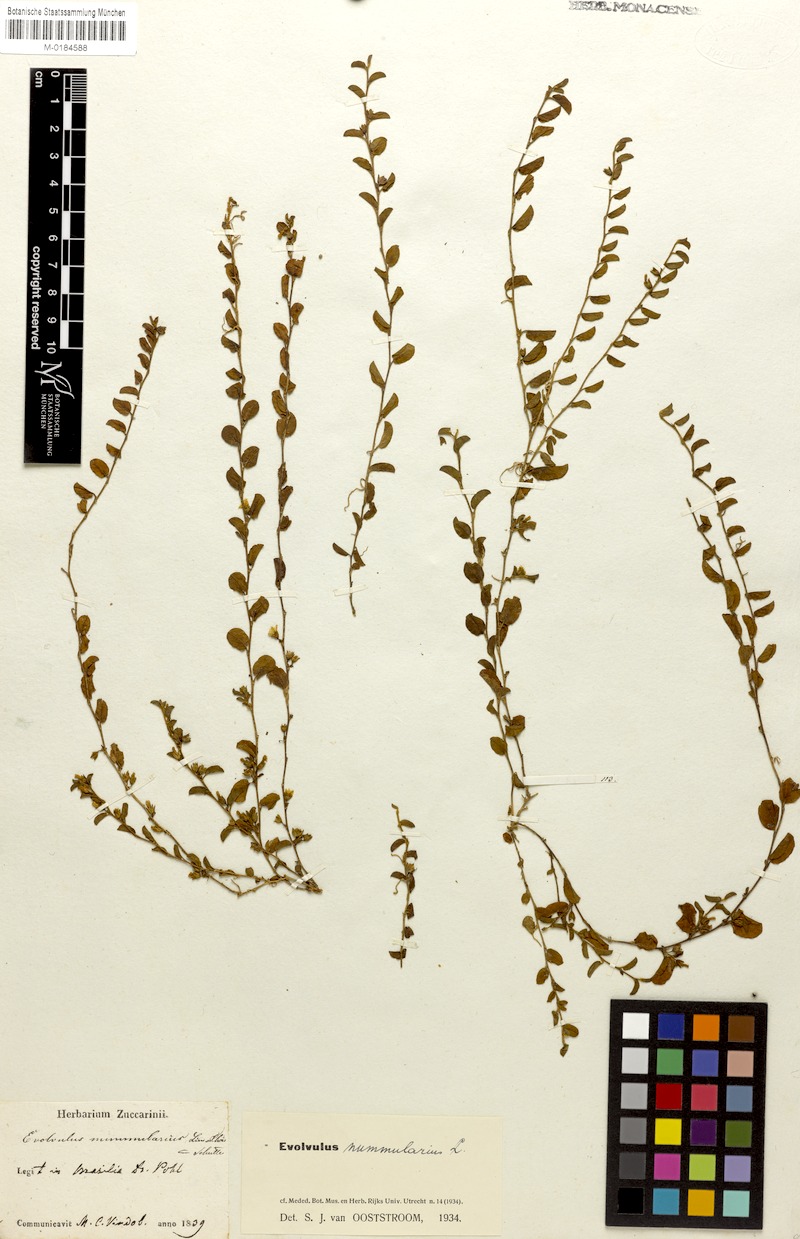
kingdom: Plantae
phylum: Tracheophyta
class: Magnoliopsida
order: Solanales
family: Convolvulaceae
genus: Evolvulus
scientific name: Evolvulus nummularius
